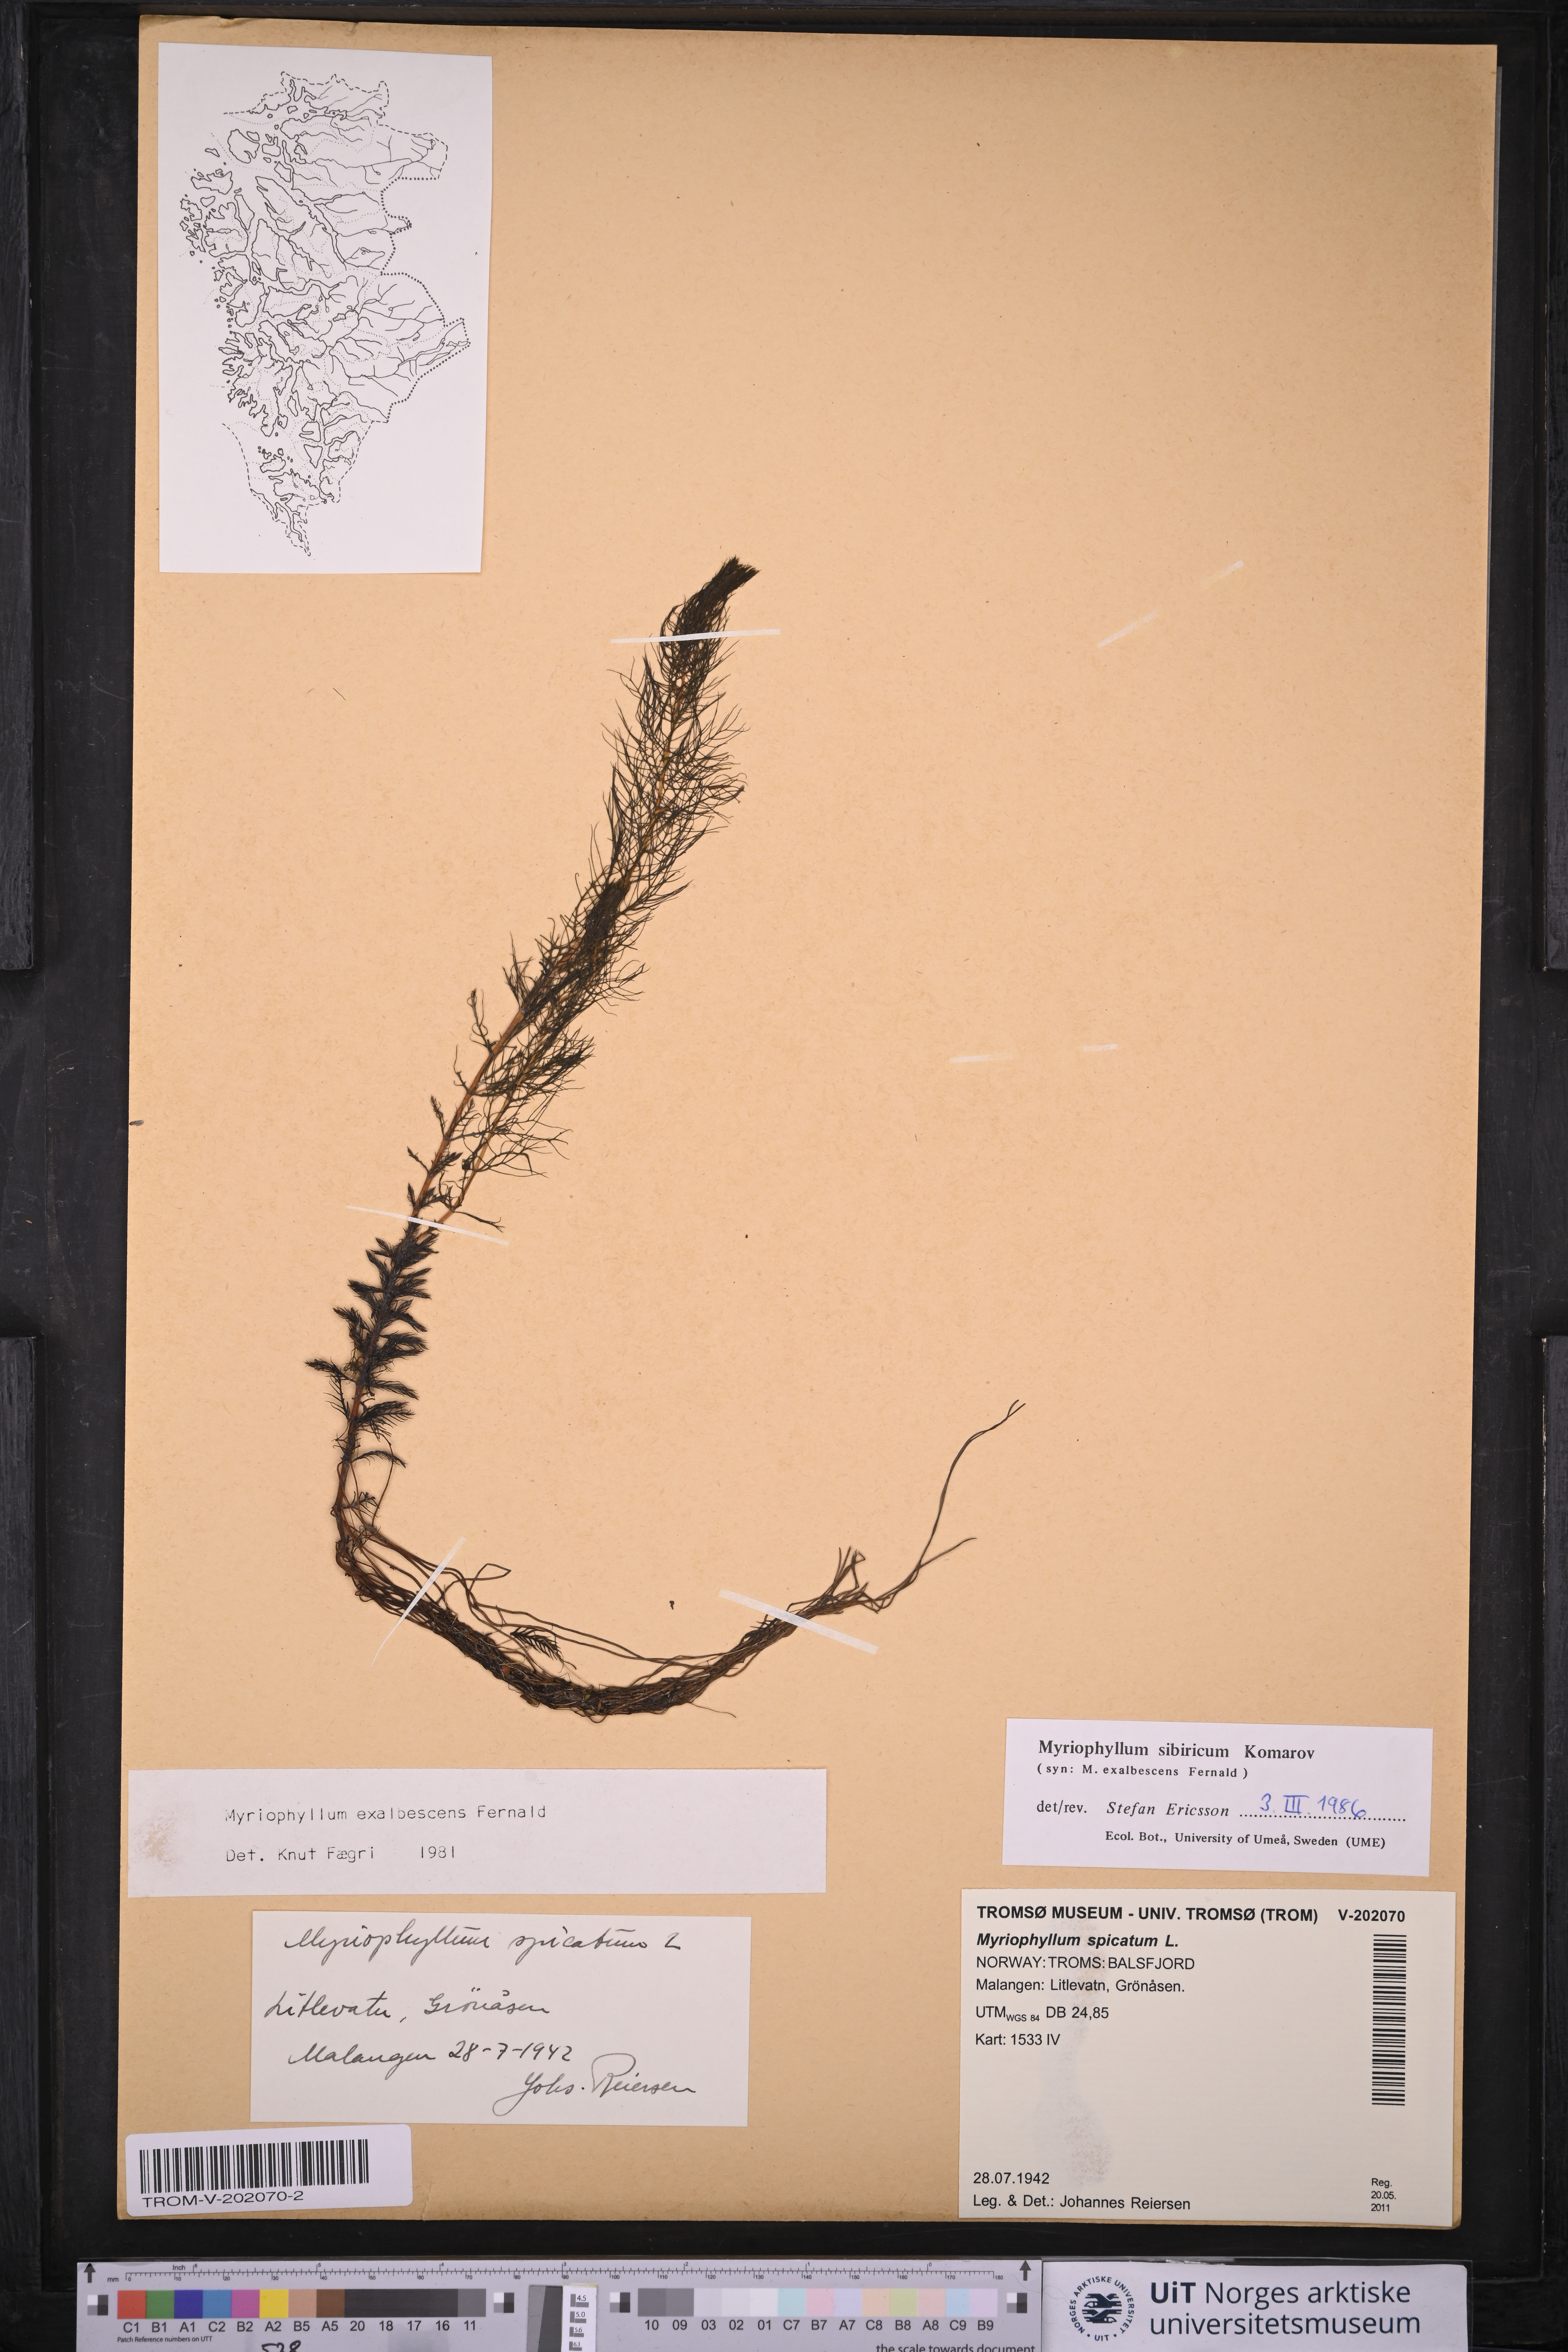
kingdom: Plantae
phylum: Tracheophyta
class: Magnoliopsida
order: Saxifragales
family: Haloragaceae
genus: Myriophyllum
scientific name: Myriophyllum sibiricum
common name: Siberian water-milfoil
